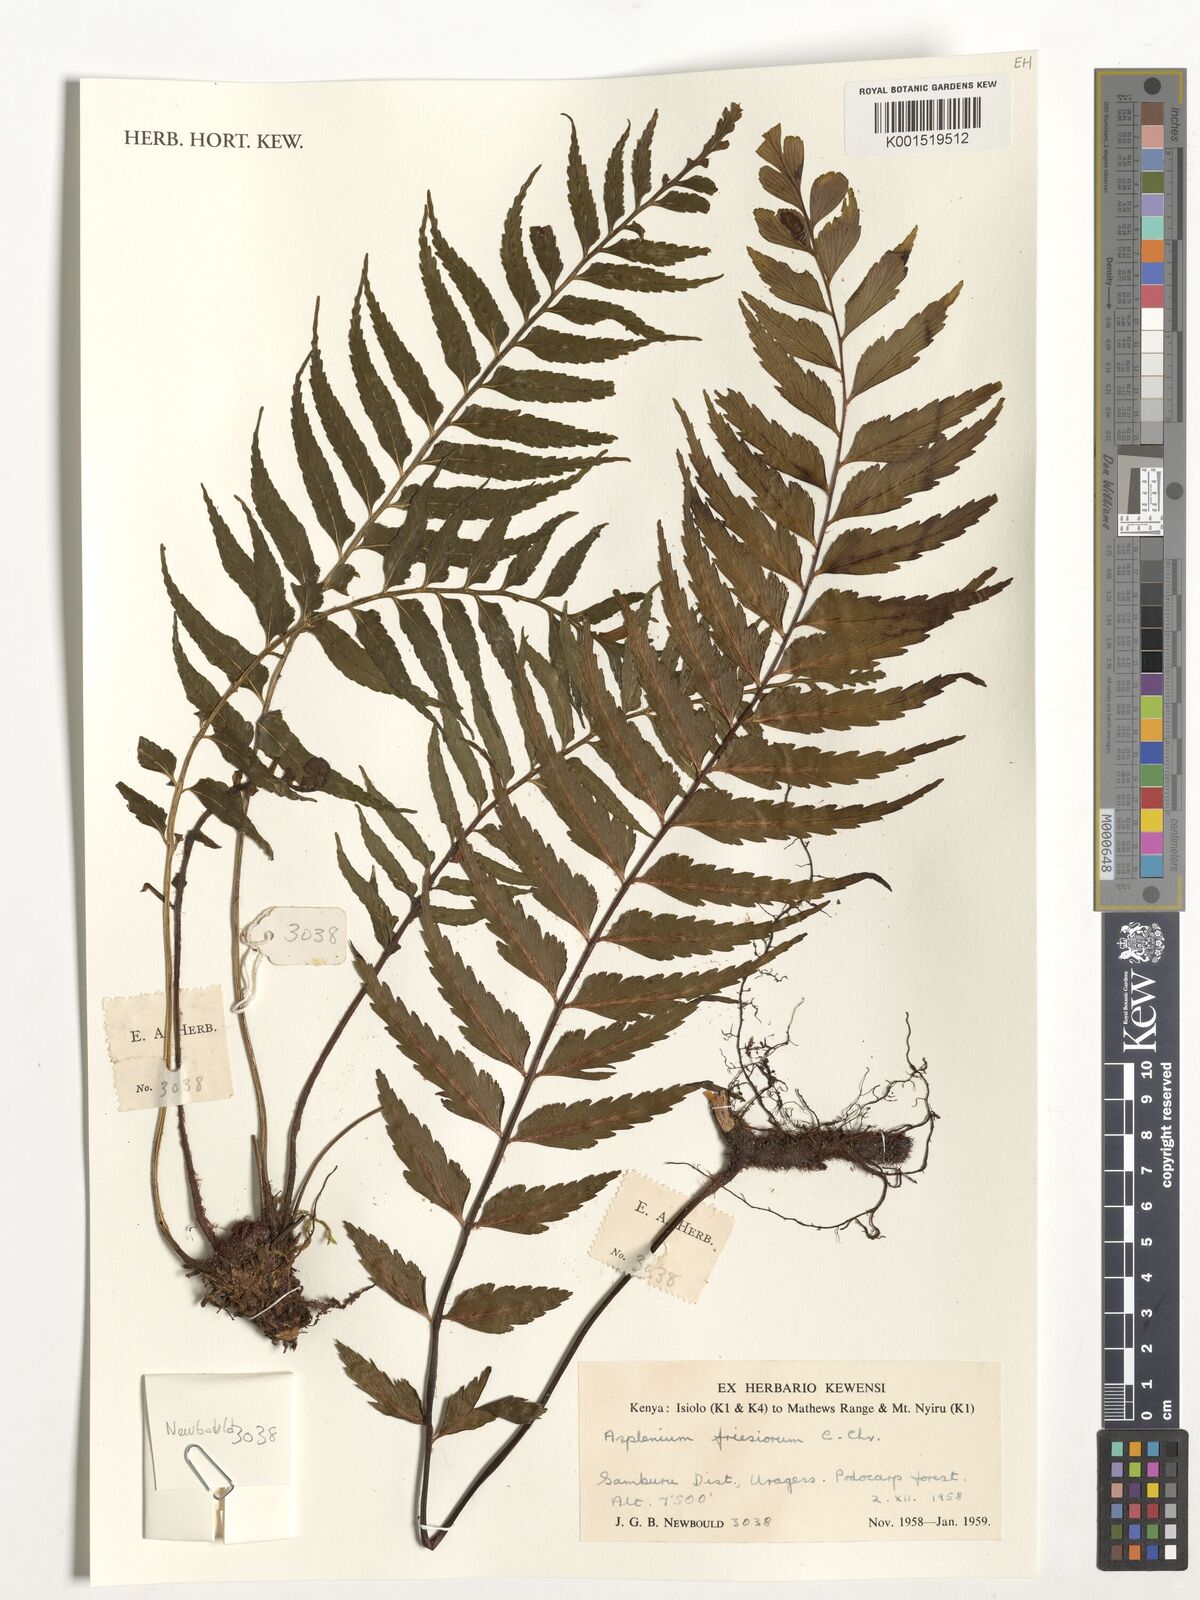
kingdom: Plantae
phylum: Tracheophyta
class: Polypodiopsida
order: Polypodiales
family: Aspleniaceae
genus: Asplenium
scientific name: Asplenium gueinzianum
